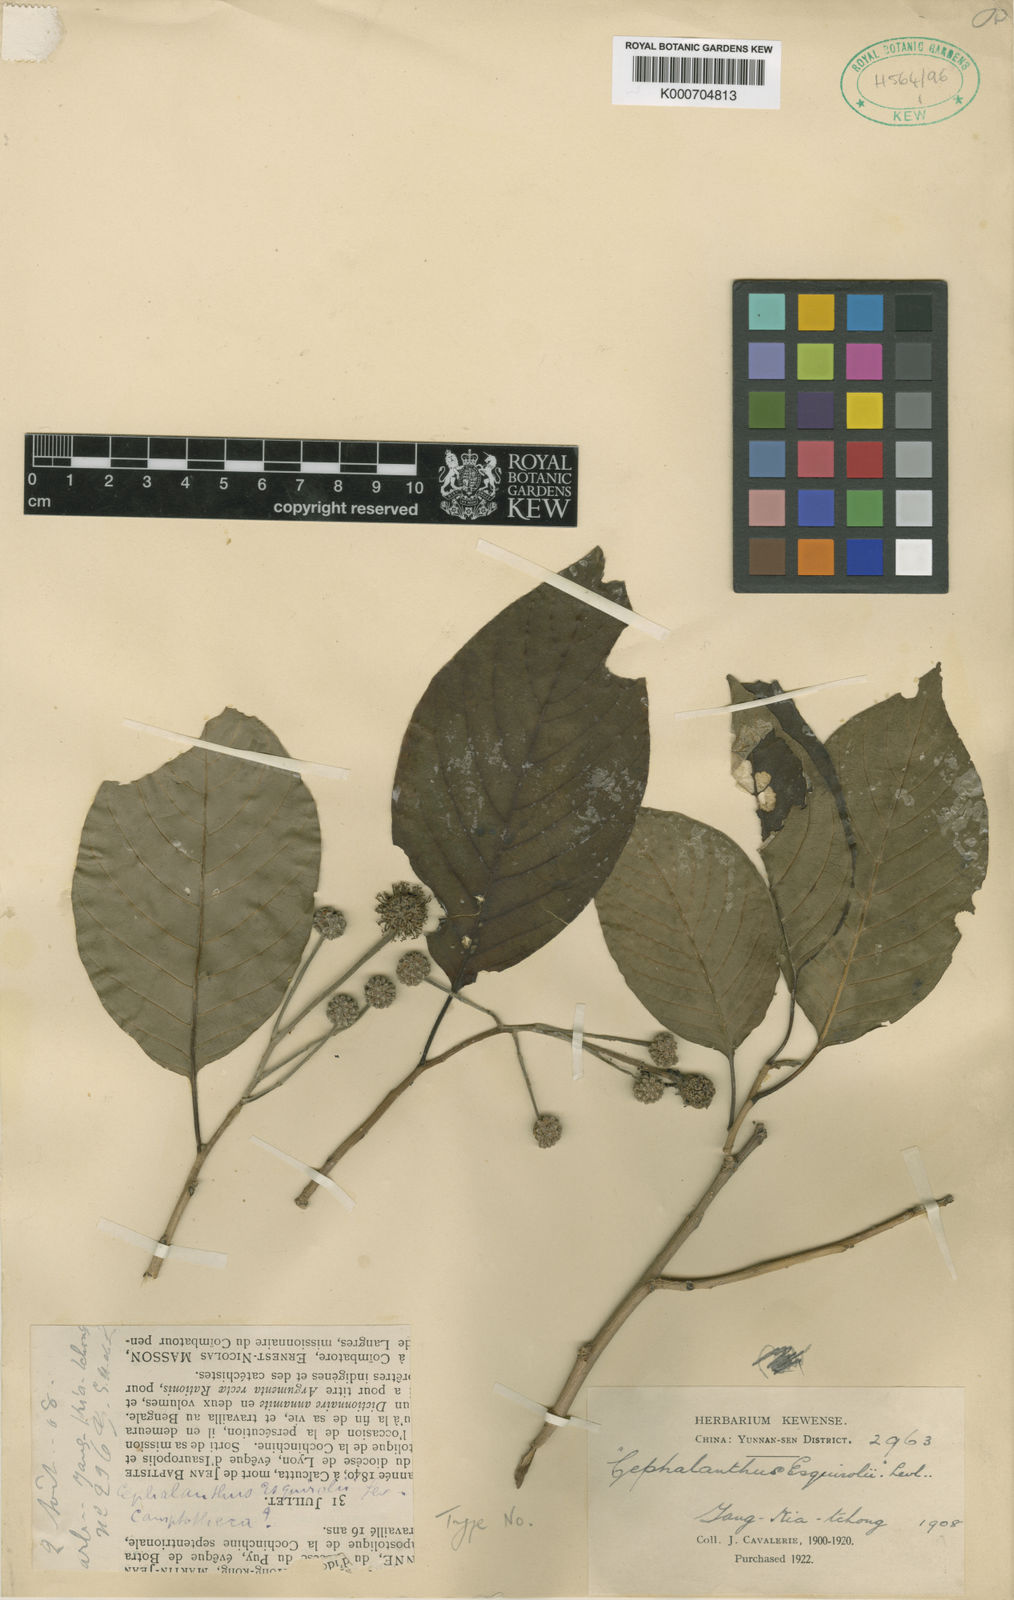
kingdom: Plantae
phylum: Tracheophyta
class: Magnoliopsida
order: Cornales
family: Nyssaceae
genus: Camptotheca
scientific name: Camptotheca acuminata
